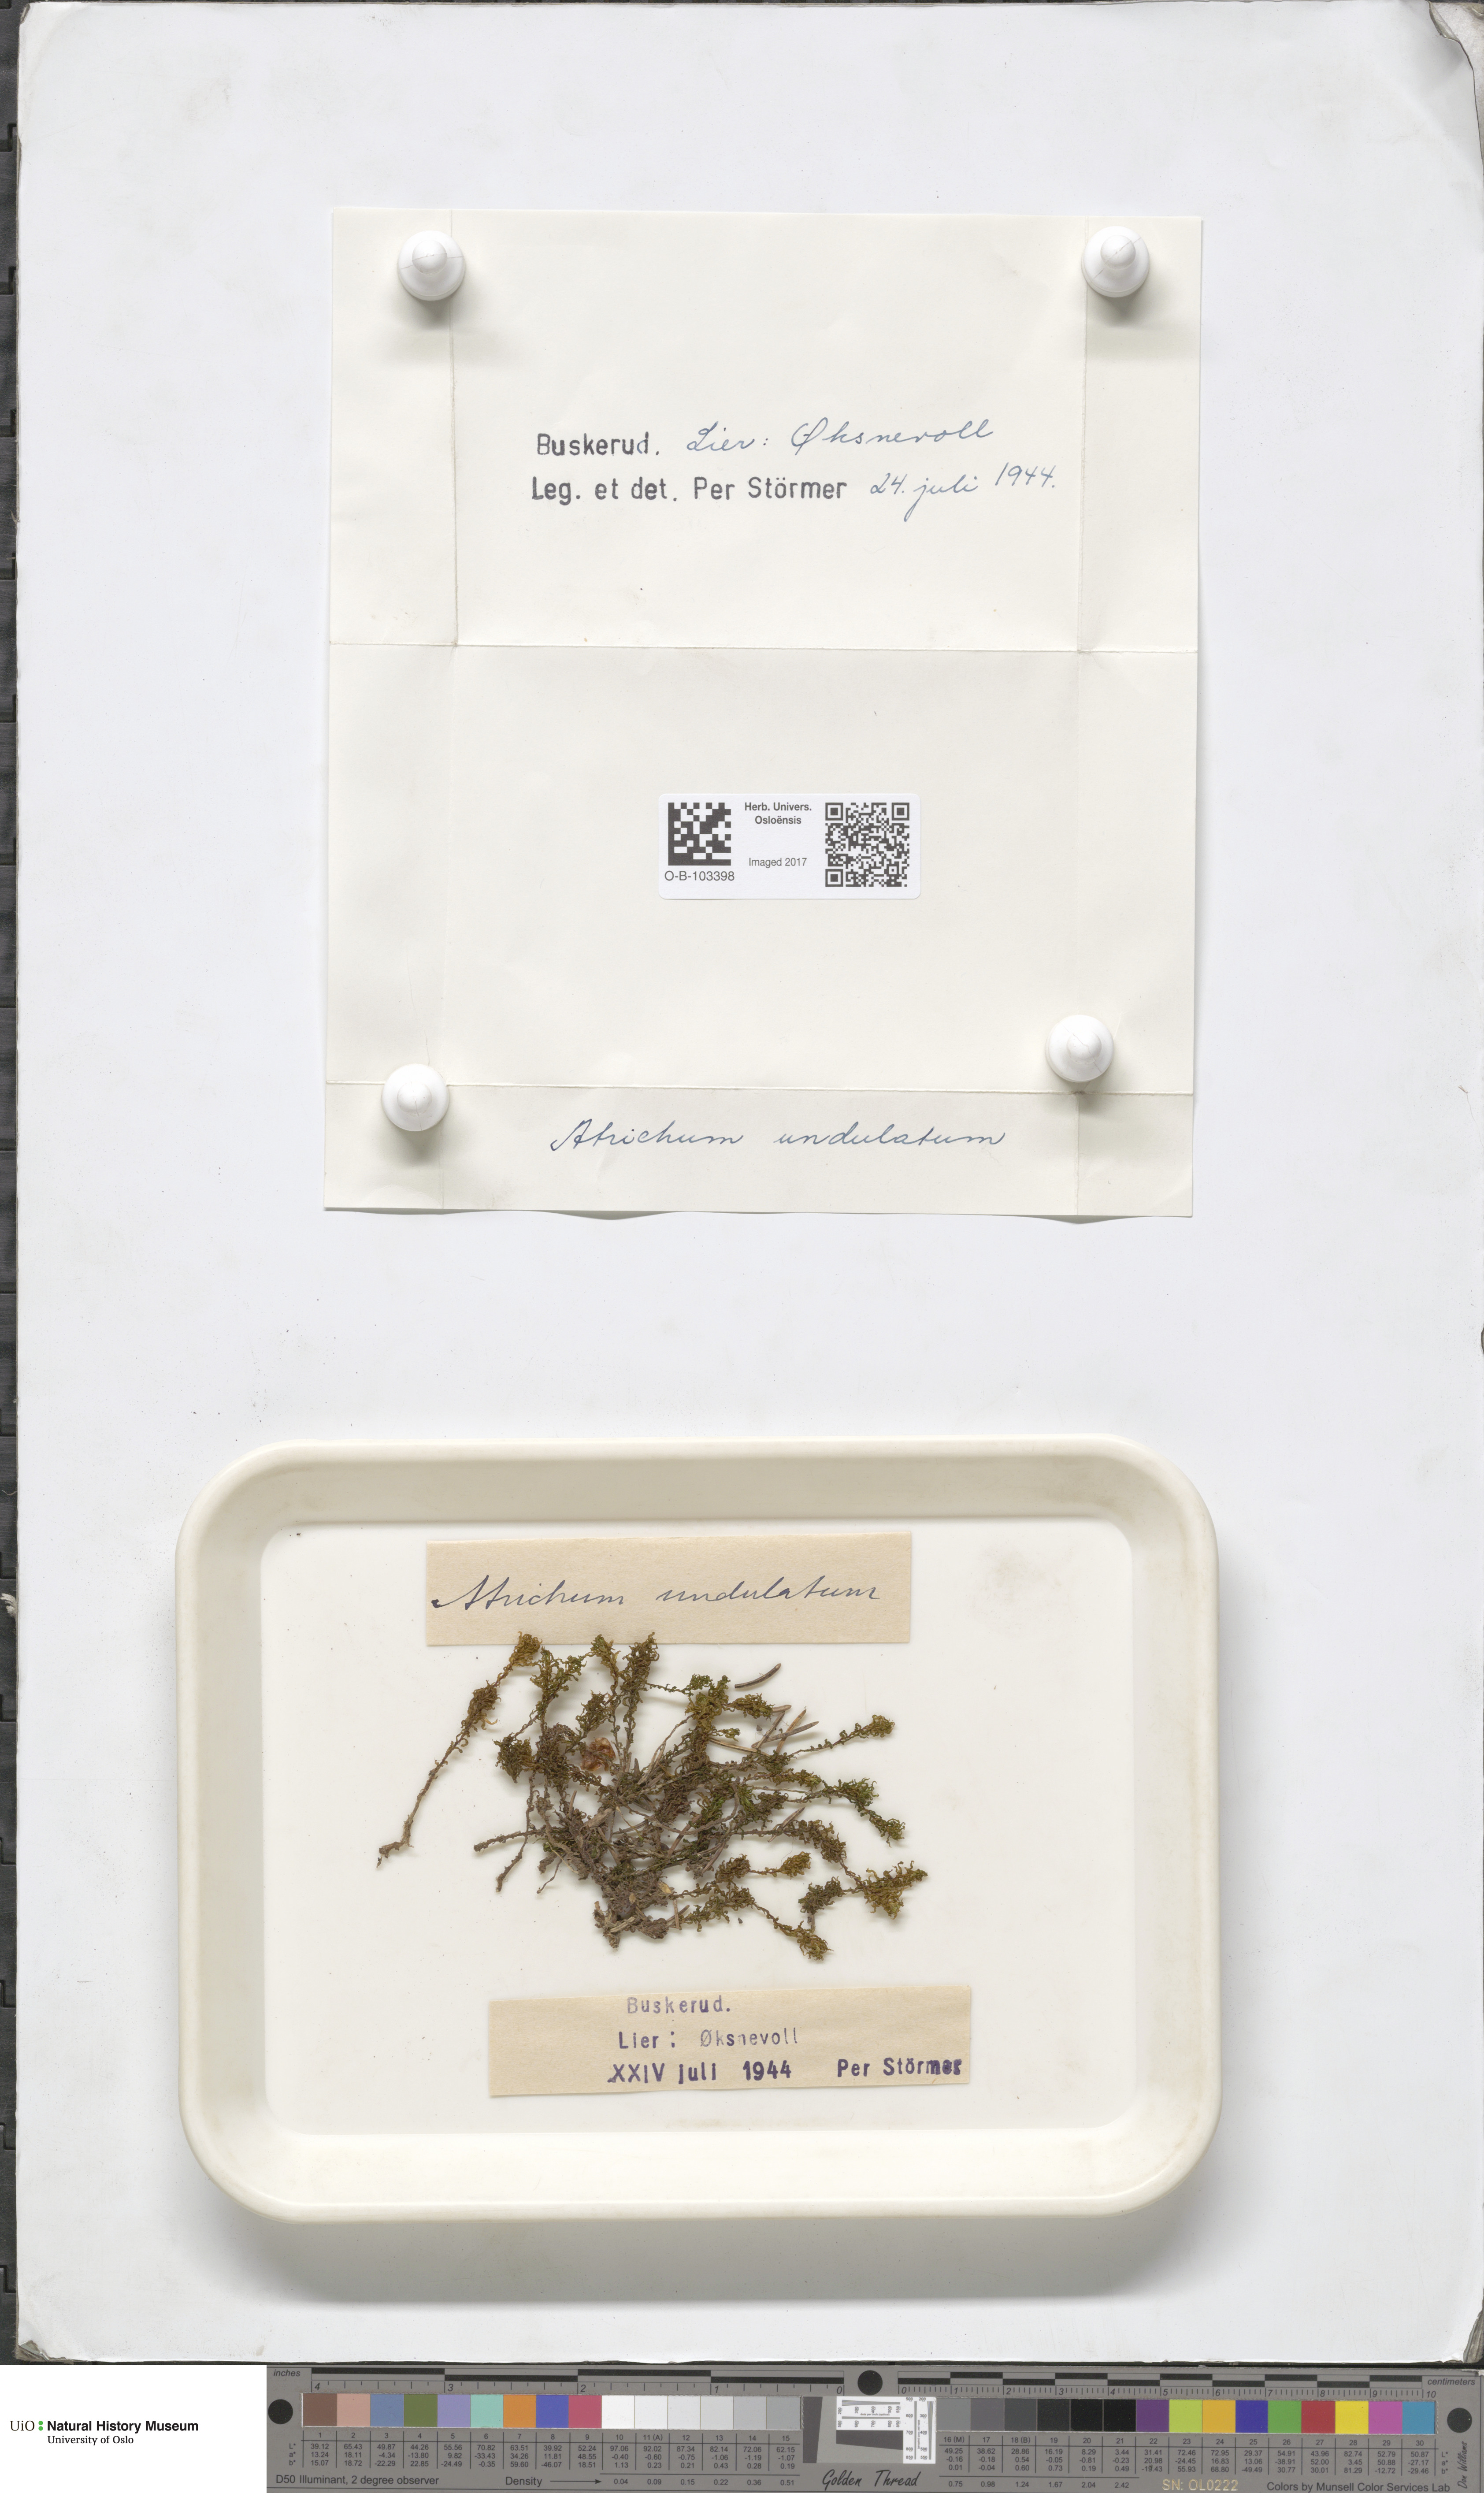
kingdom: Plantae
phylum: Bryophyta
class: Polytrichopsida
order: Polytrichales
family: Polytrichaceae
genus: Atrichum
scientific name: Atrichum undulatum
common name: Common smoothcap
